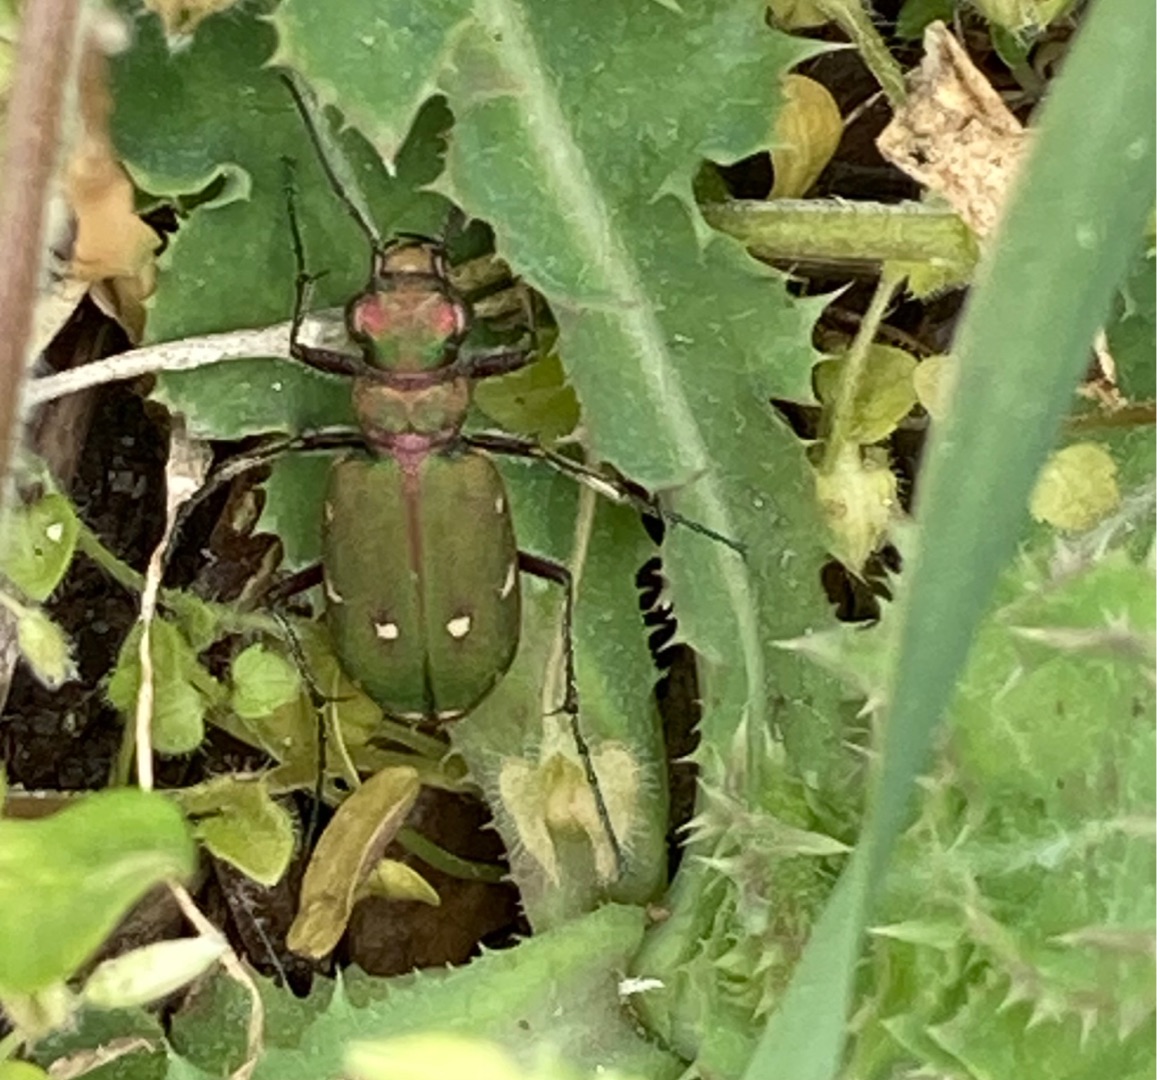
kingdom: Animalia
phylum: Arthropoda
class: Insecta
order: Coleoptera
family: Carabidae
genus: Cicindela
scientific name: Cicindela campestris
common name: Grøn sandspringer
